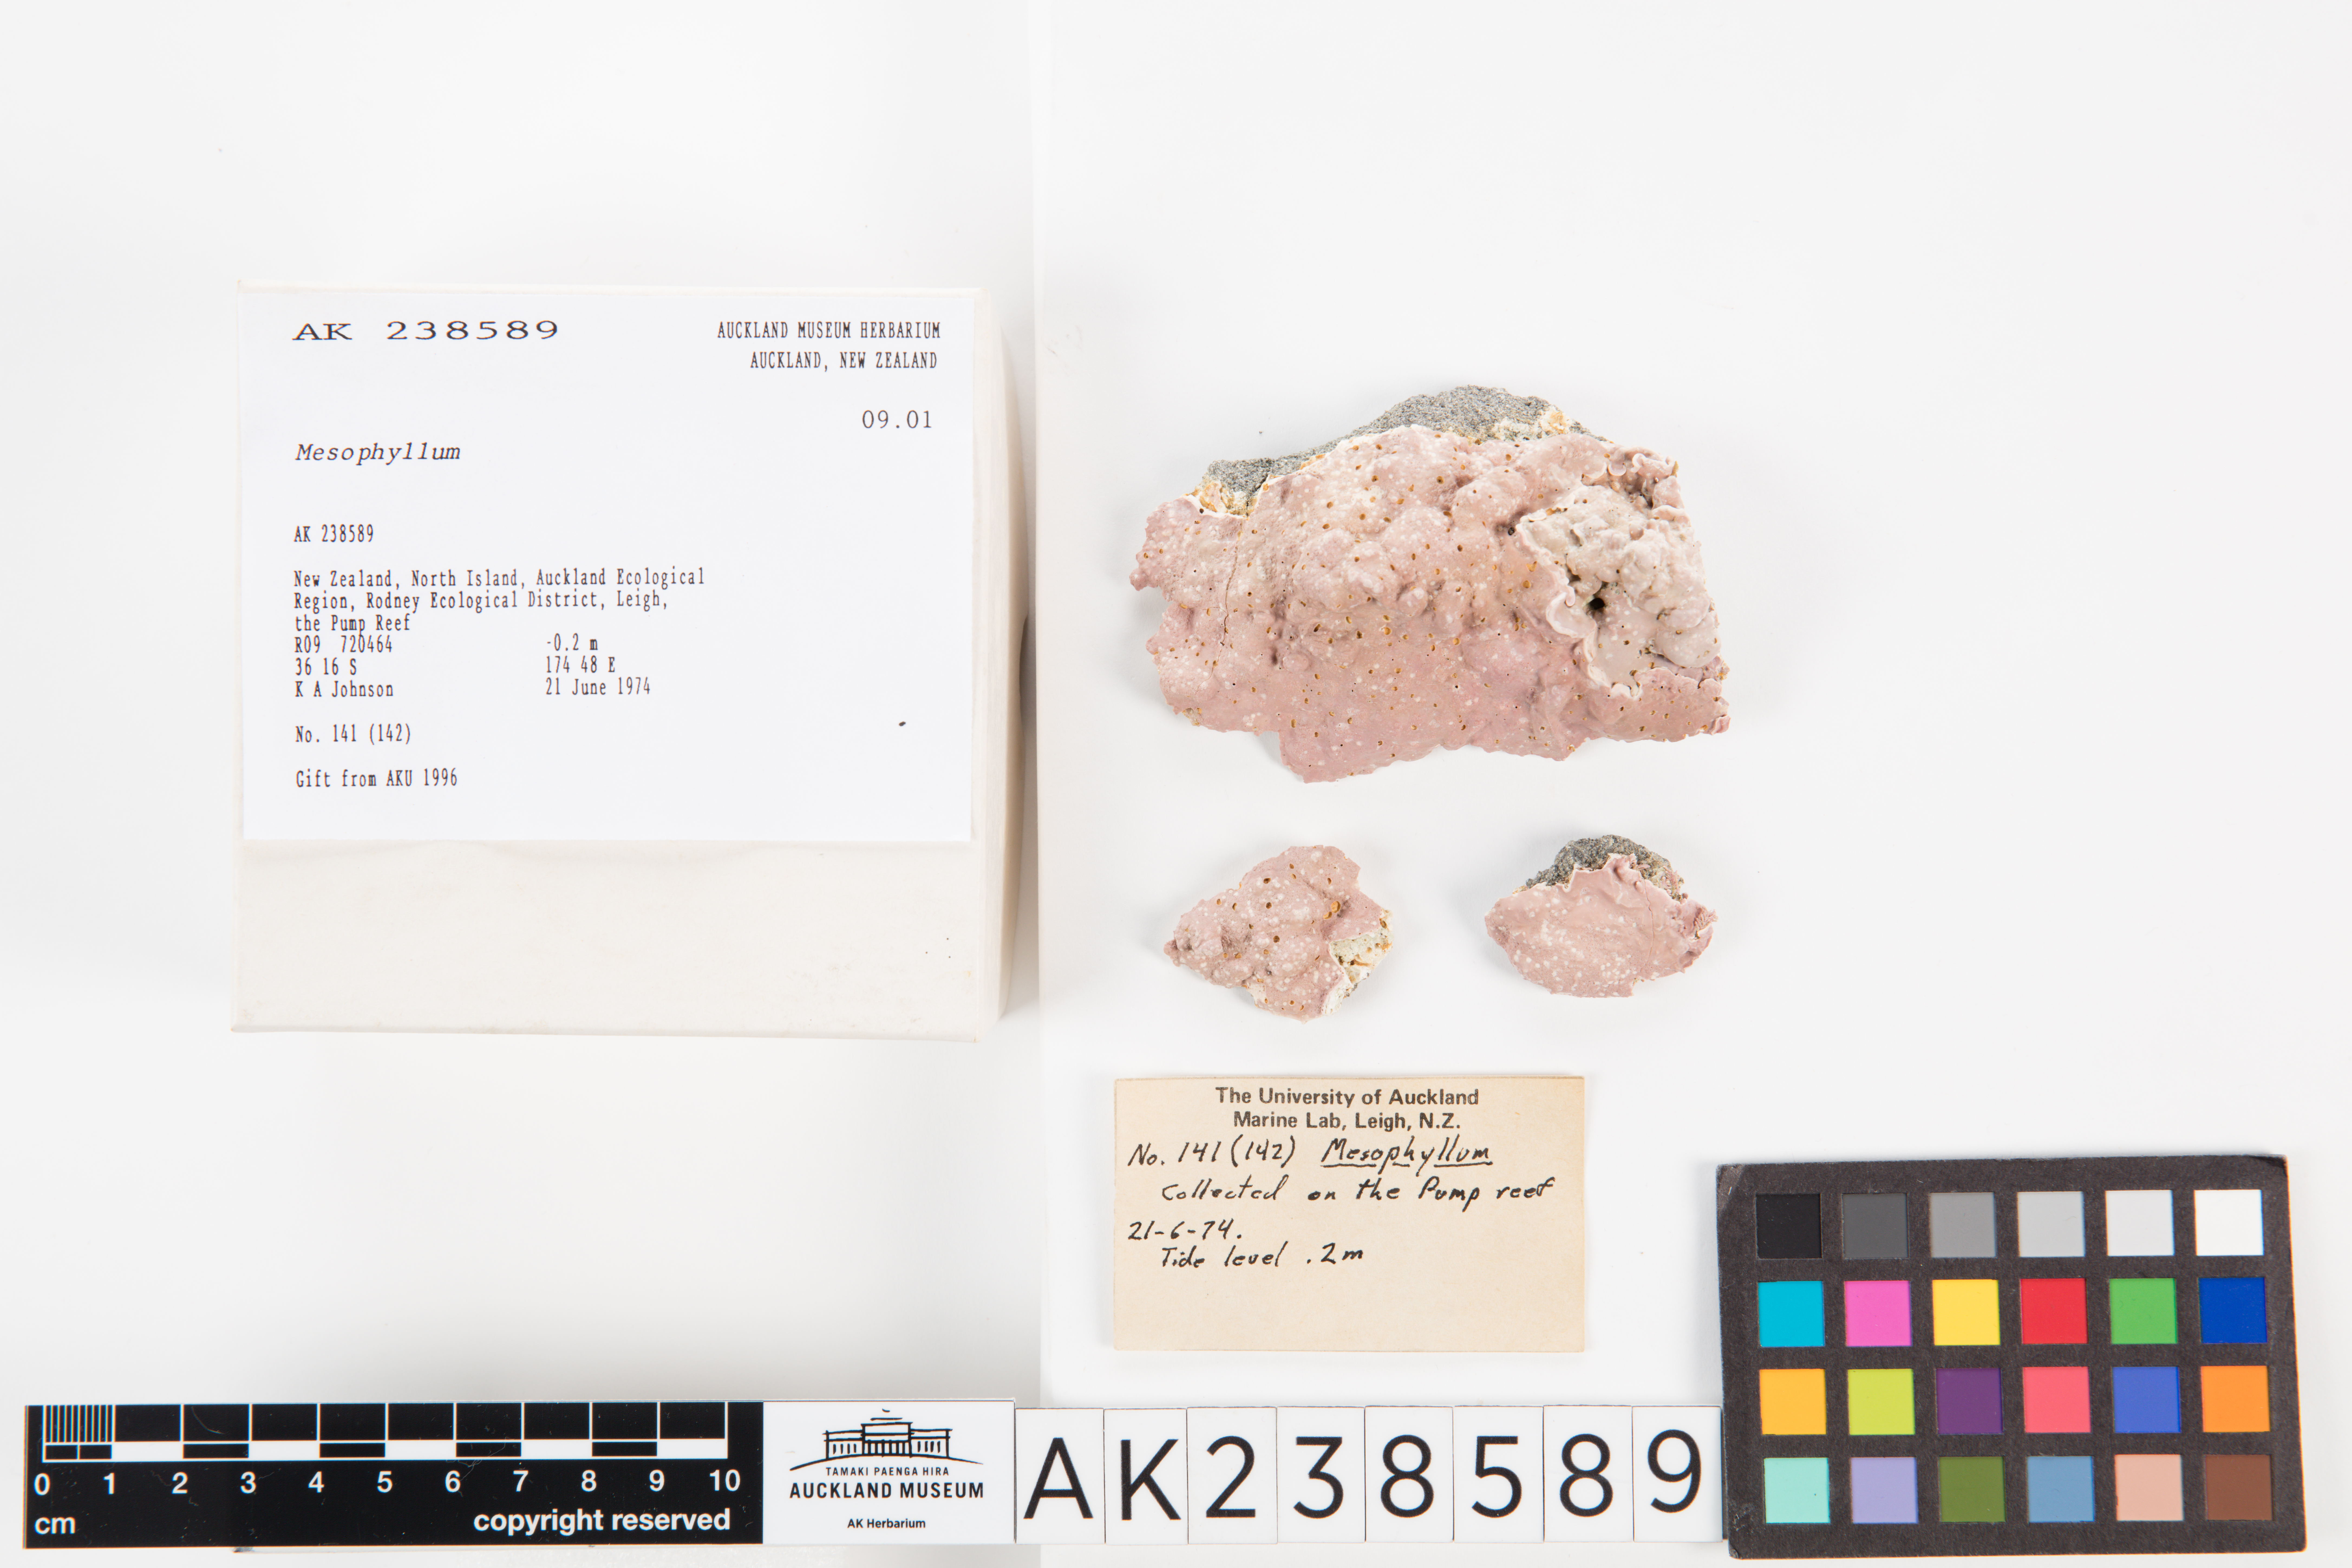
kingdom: Plantae
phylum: Rhodophyta
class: Florideophyceae
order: Corallinales
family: Mesophyllumaceae
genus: Mesophyllum
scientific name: Mesophyllum
